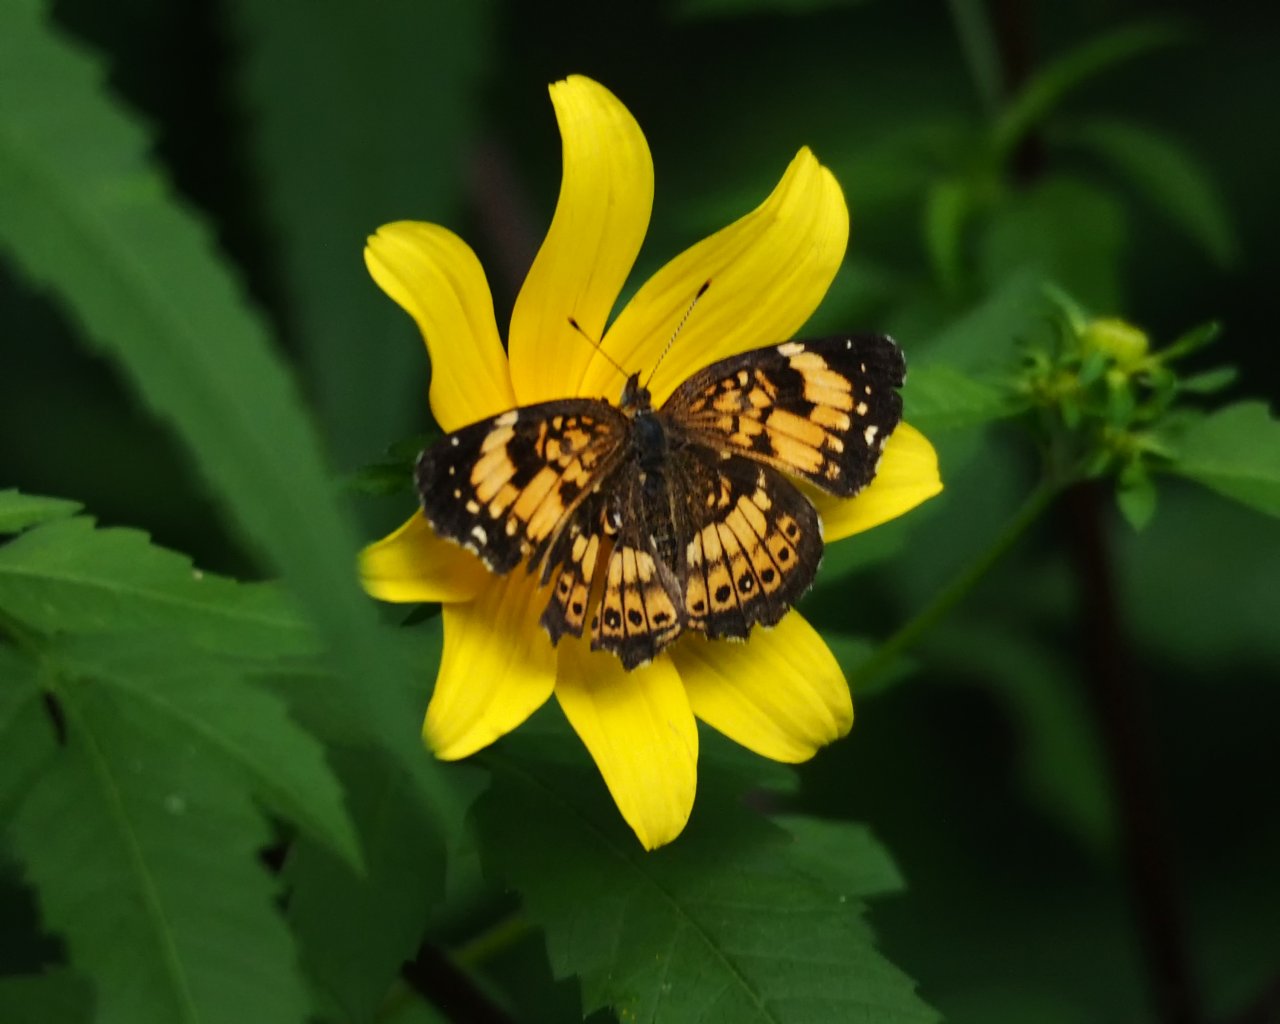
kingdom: Animalia
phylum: Arthropoda
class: Insecta
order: Lepidoptera
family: Nymphalidae
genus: Chlosyne
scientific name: Chlosyne nycteis
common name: Silvery Checkerspot
